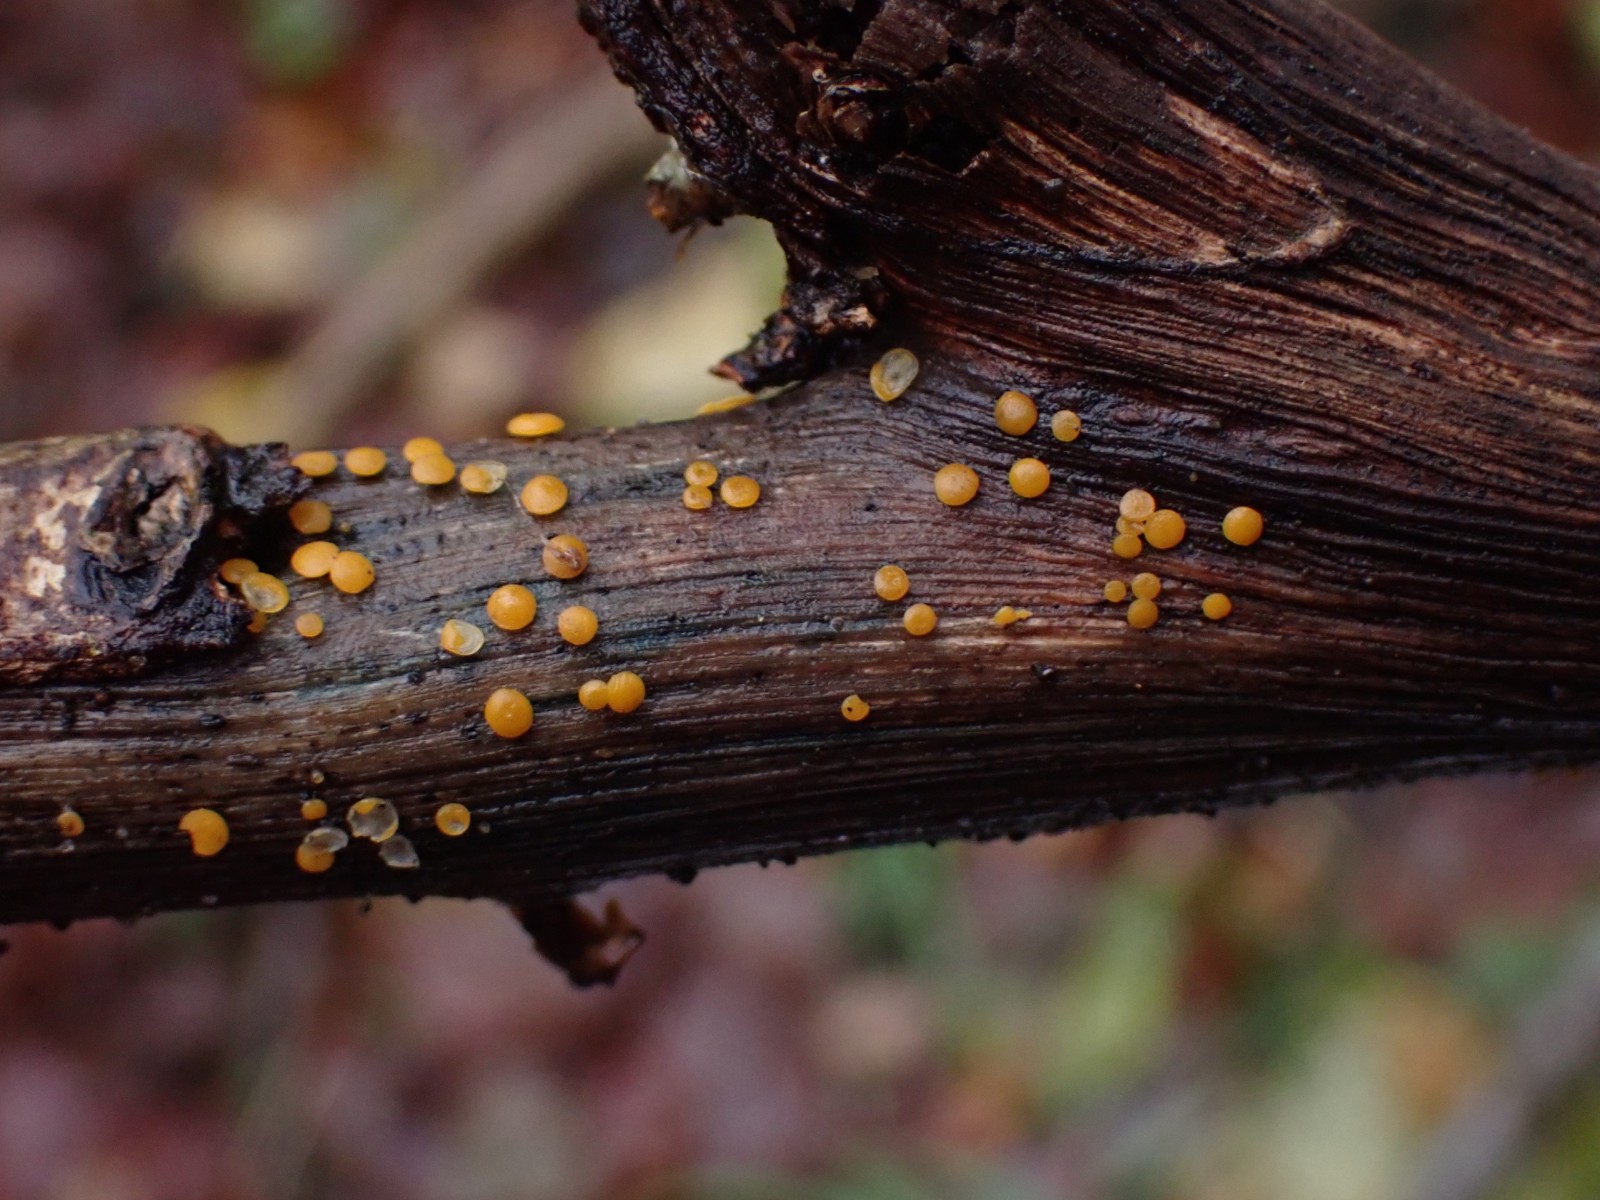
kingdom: Fungi
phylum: Ascomycota
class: Leotiomycetes
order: Helotiales
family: Pezizellaceae
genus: Calycina
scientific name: Calycina citrina
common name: almindelig gulskive
